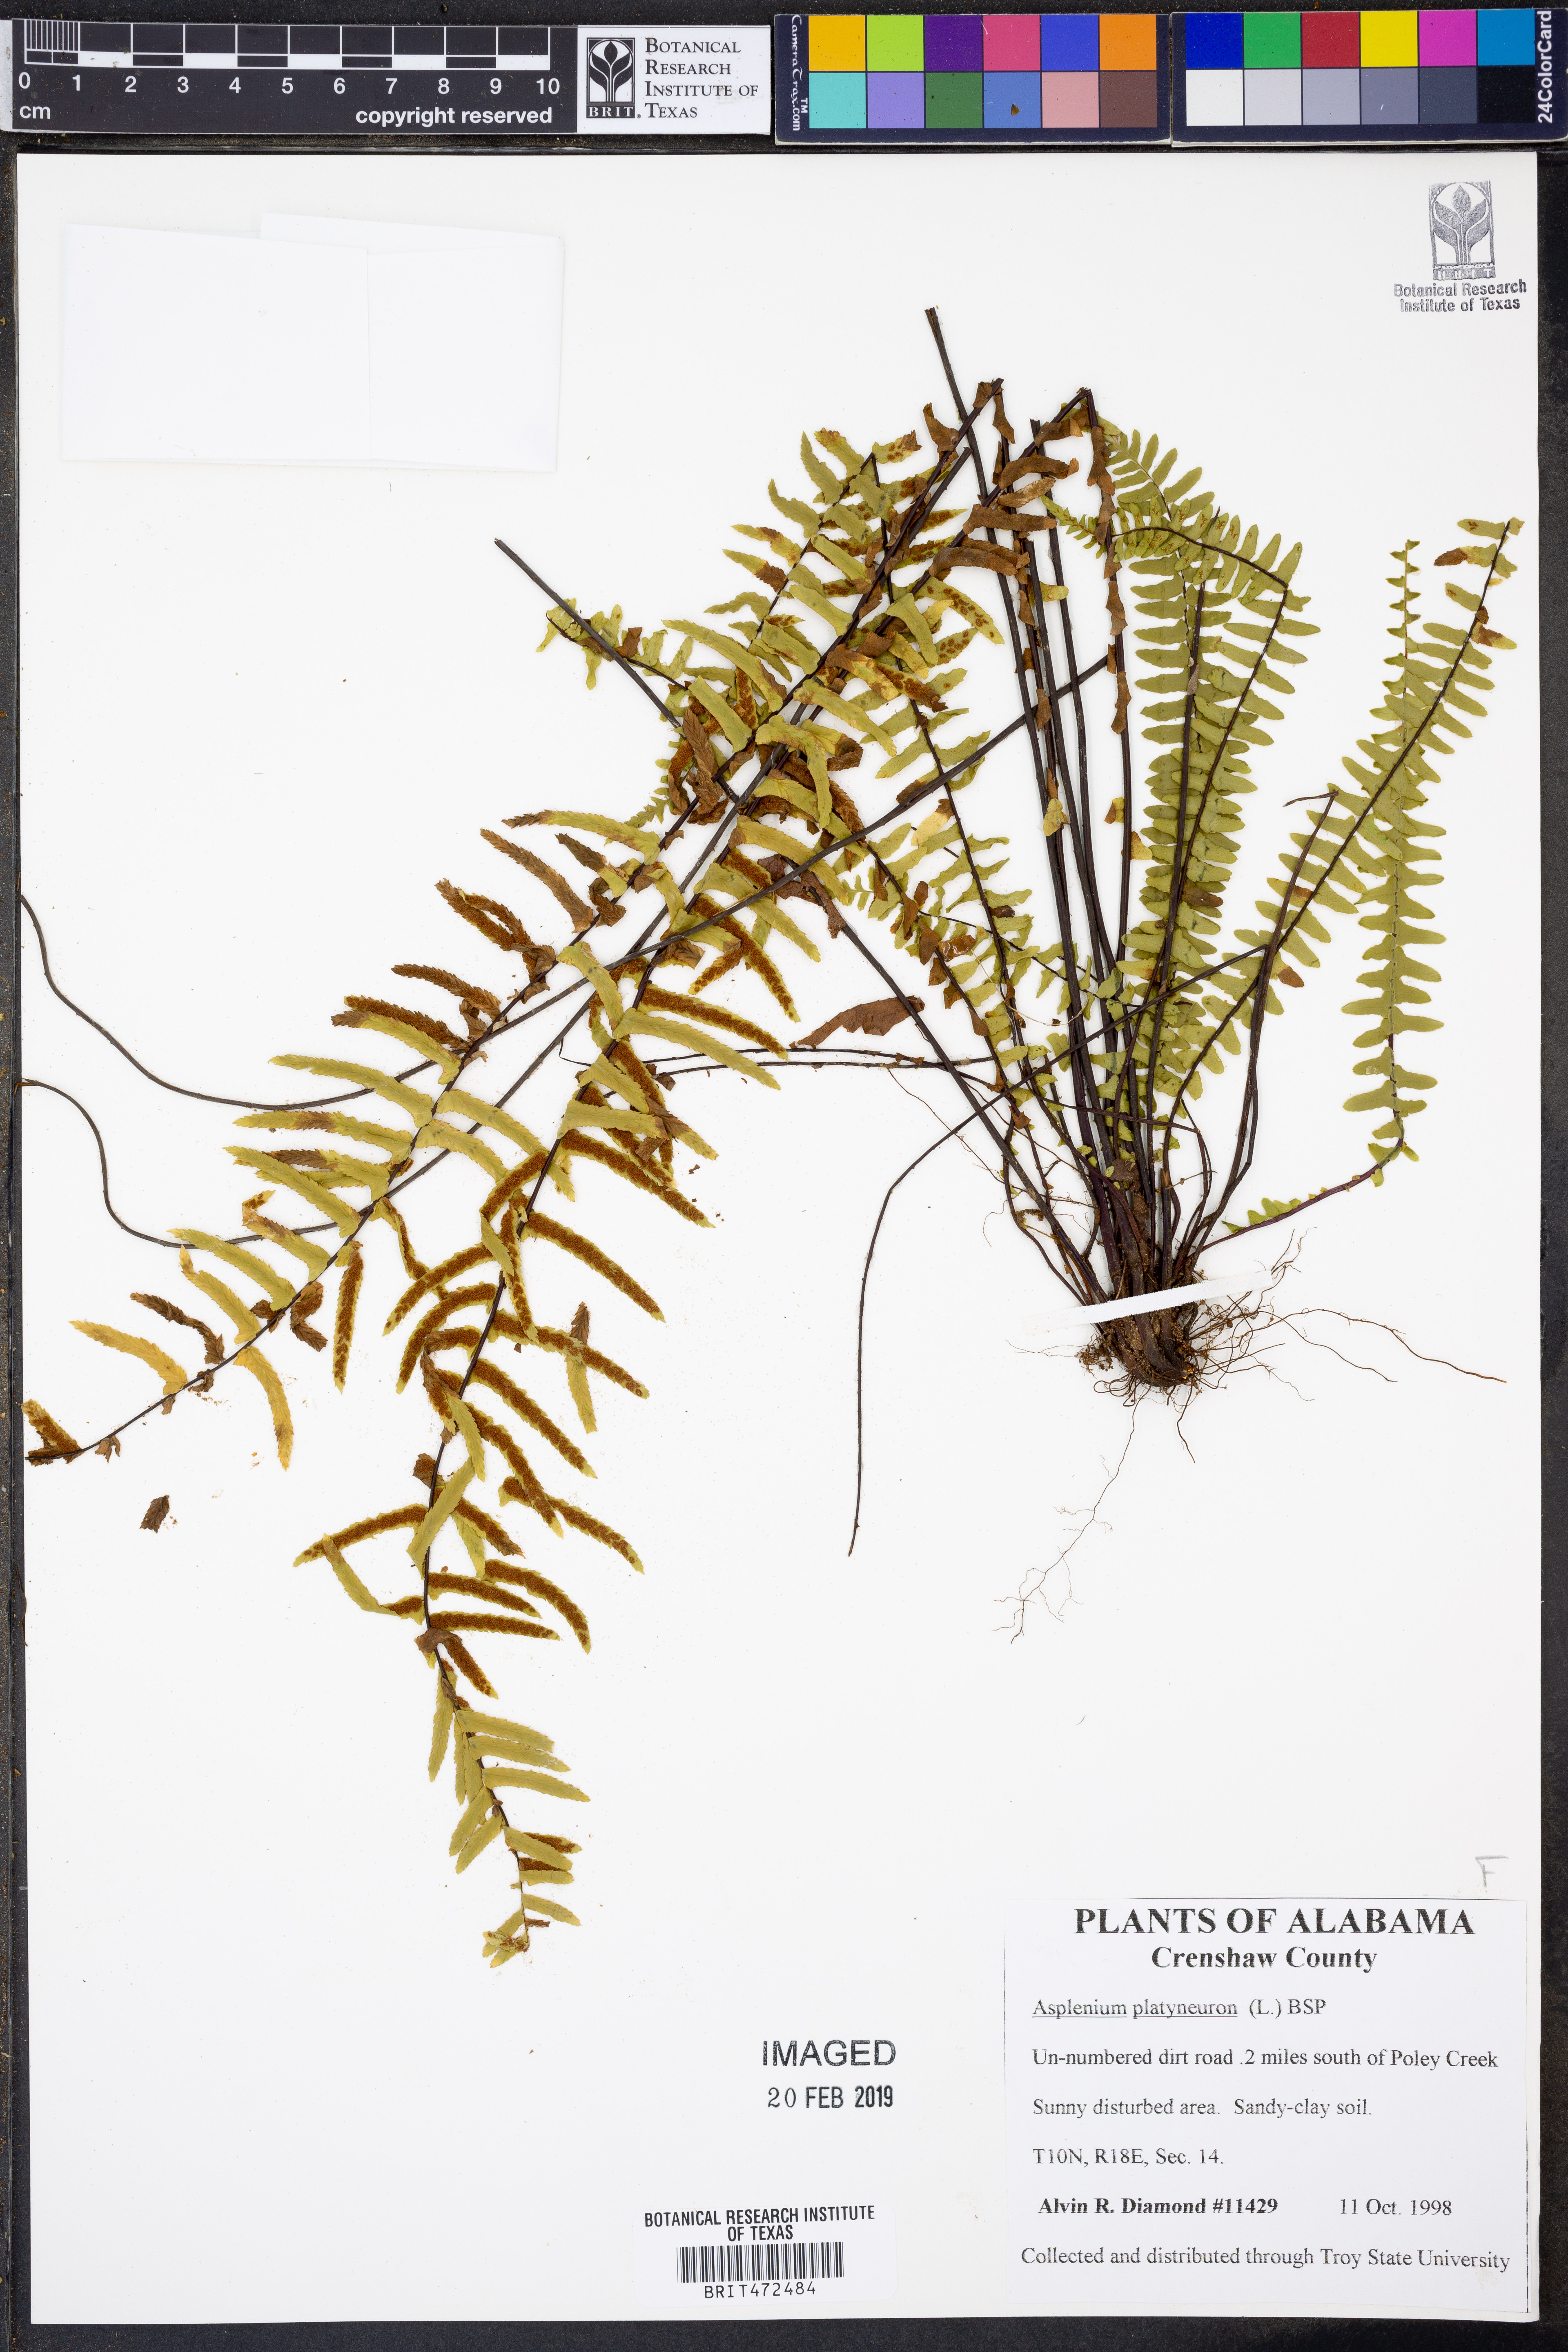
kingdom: Plantae
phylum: Tracheophyta
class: Polypodiopsida
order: Polypodiales
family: Aspleniaceae
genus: Asplenium
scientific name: Asplenium platyneuron
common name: Ebony spleenwort
